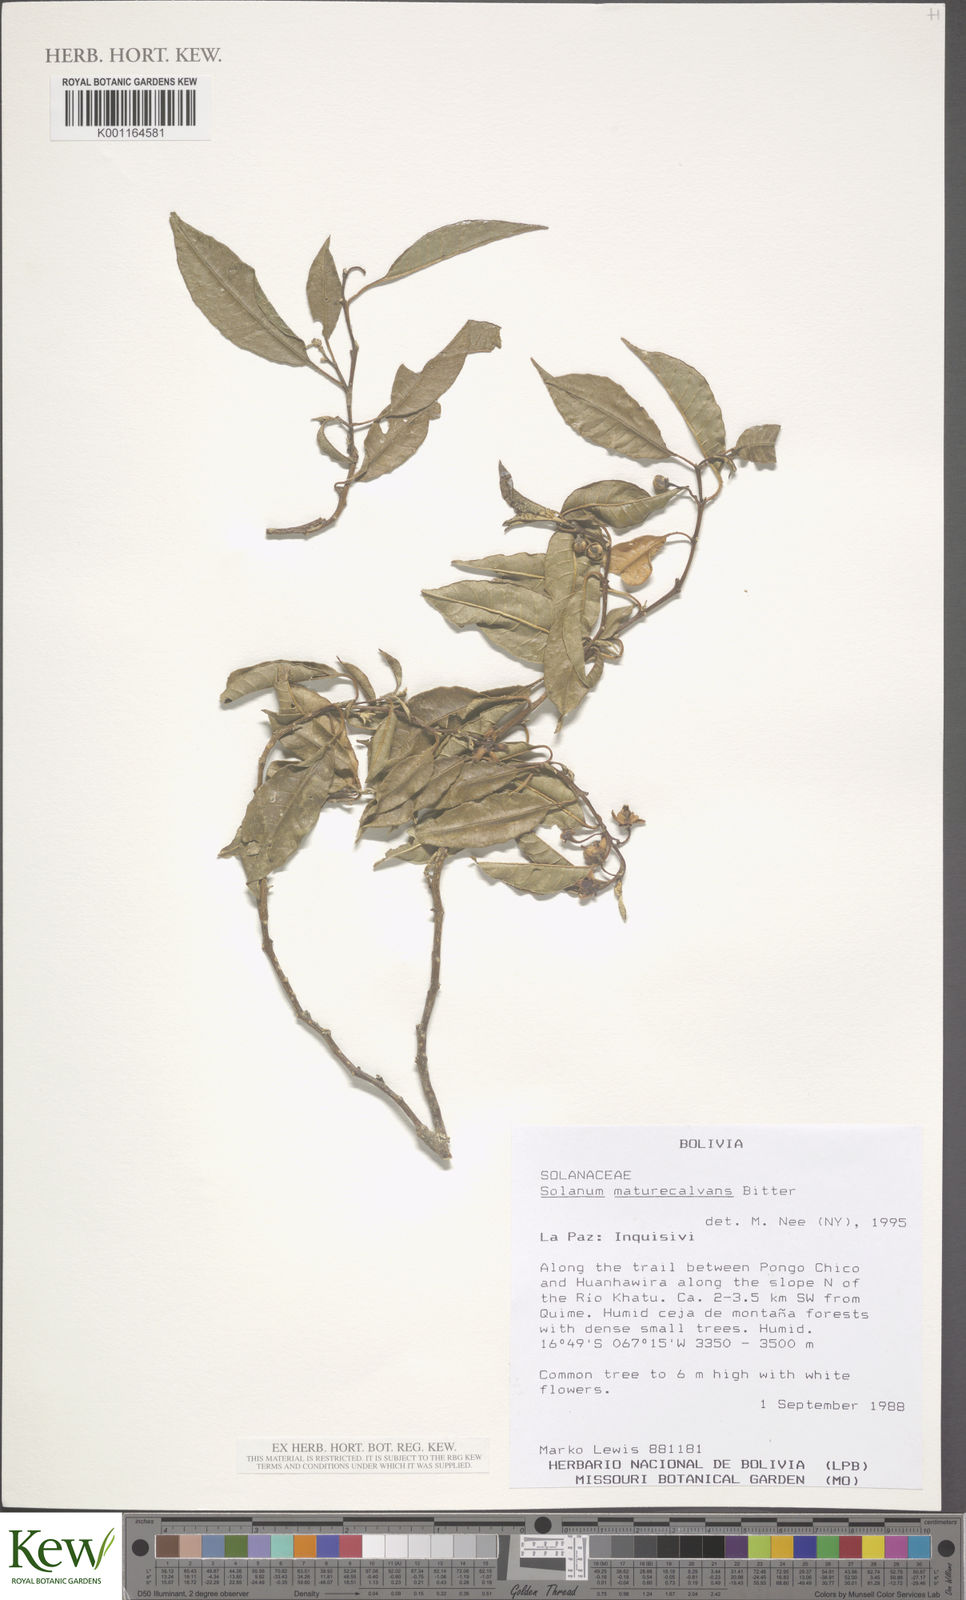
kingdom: Plantae
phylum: Tracheophyta
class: Magnoliopsida
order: Solanales
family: Solanaceae
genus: Solanum
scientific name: Solanum maturecalvans
